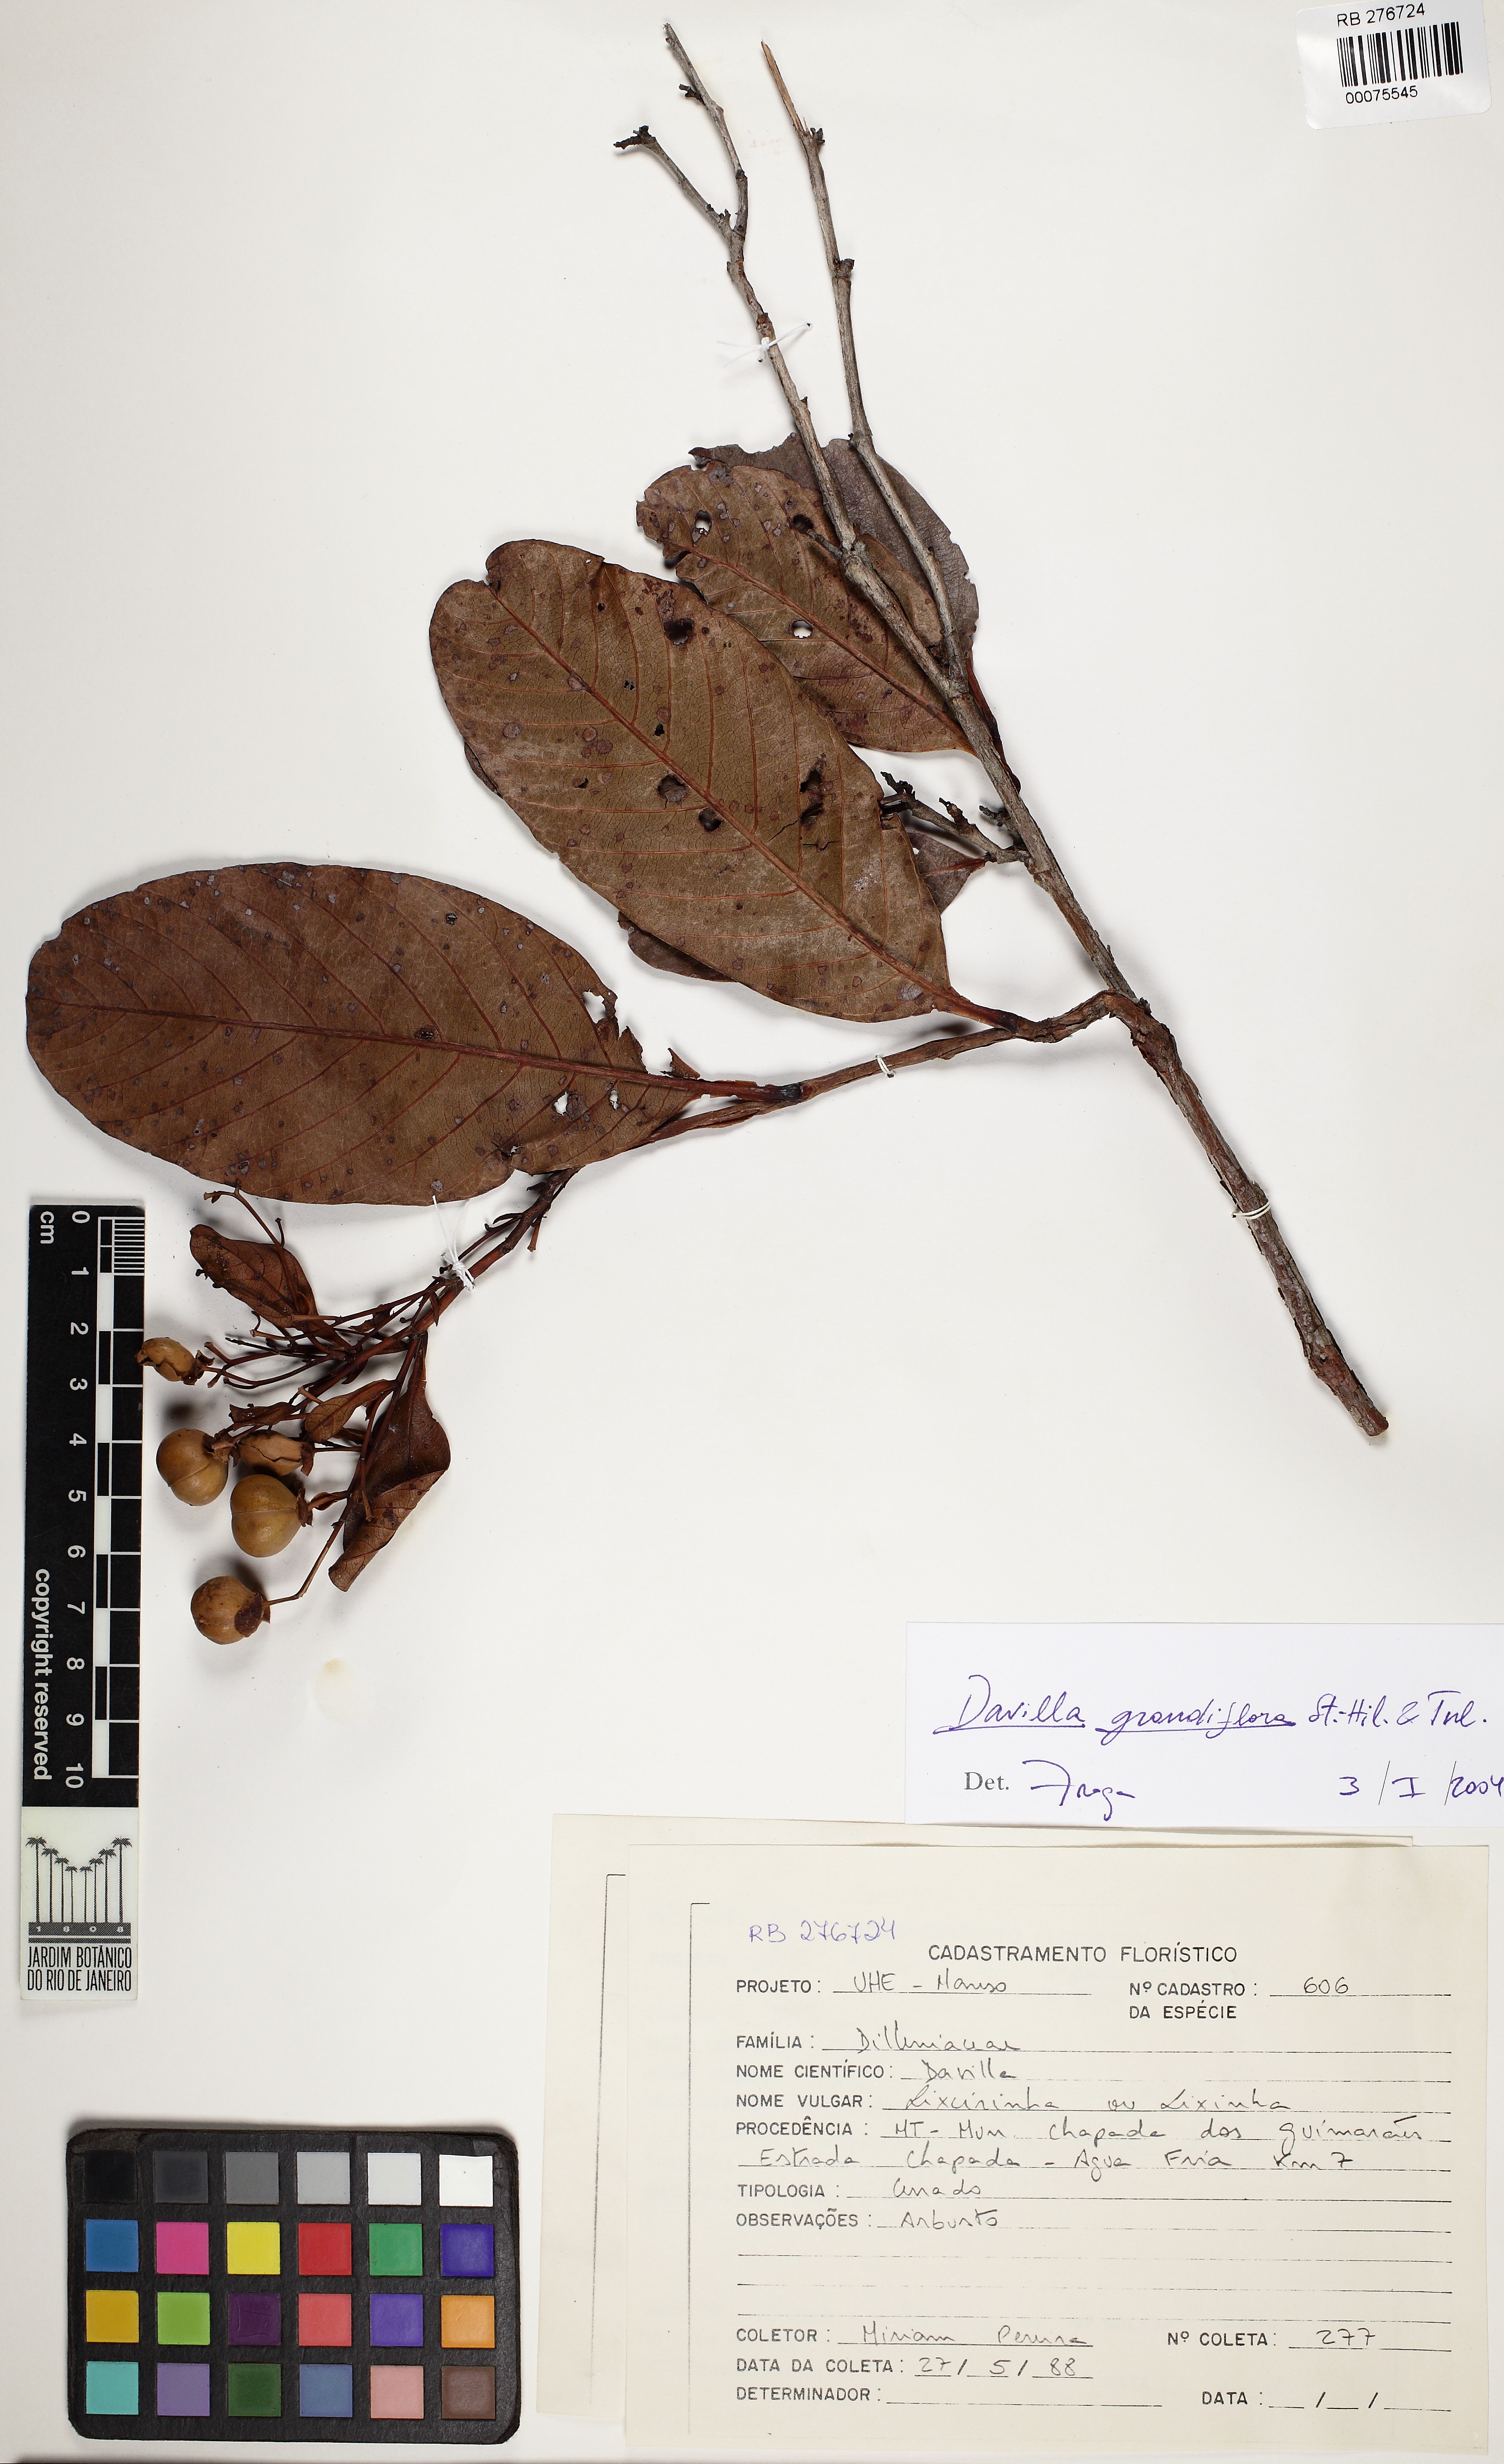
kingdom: Plantae
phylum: Tracheophyta
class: Magnoliopsida
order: Dilleniales
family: Dilleniaceae
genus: Davilla
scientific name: Davilla grandiflora
